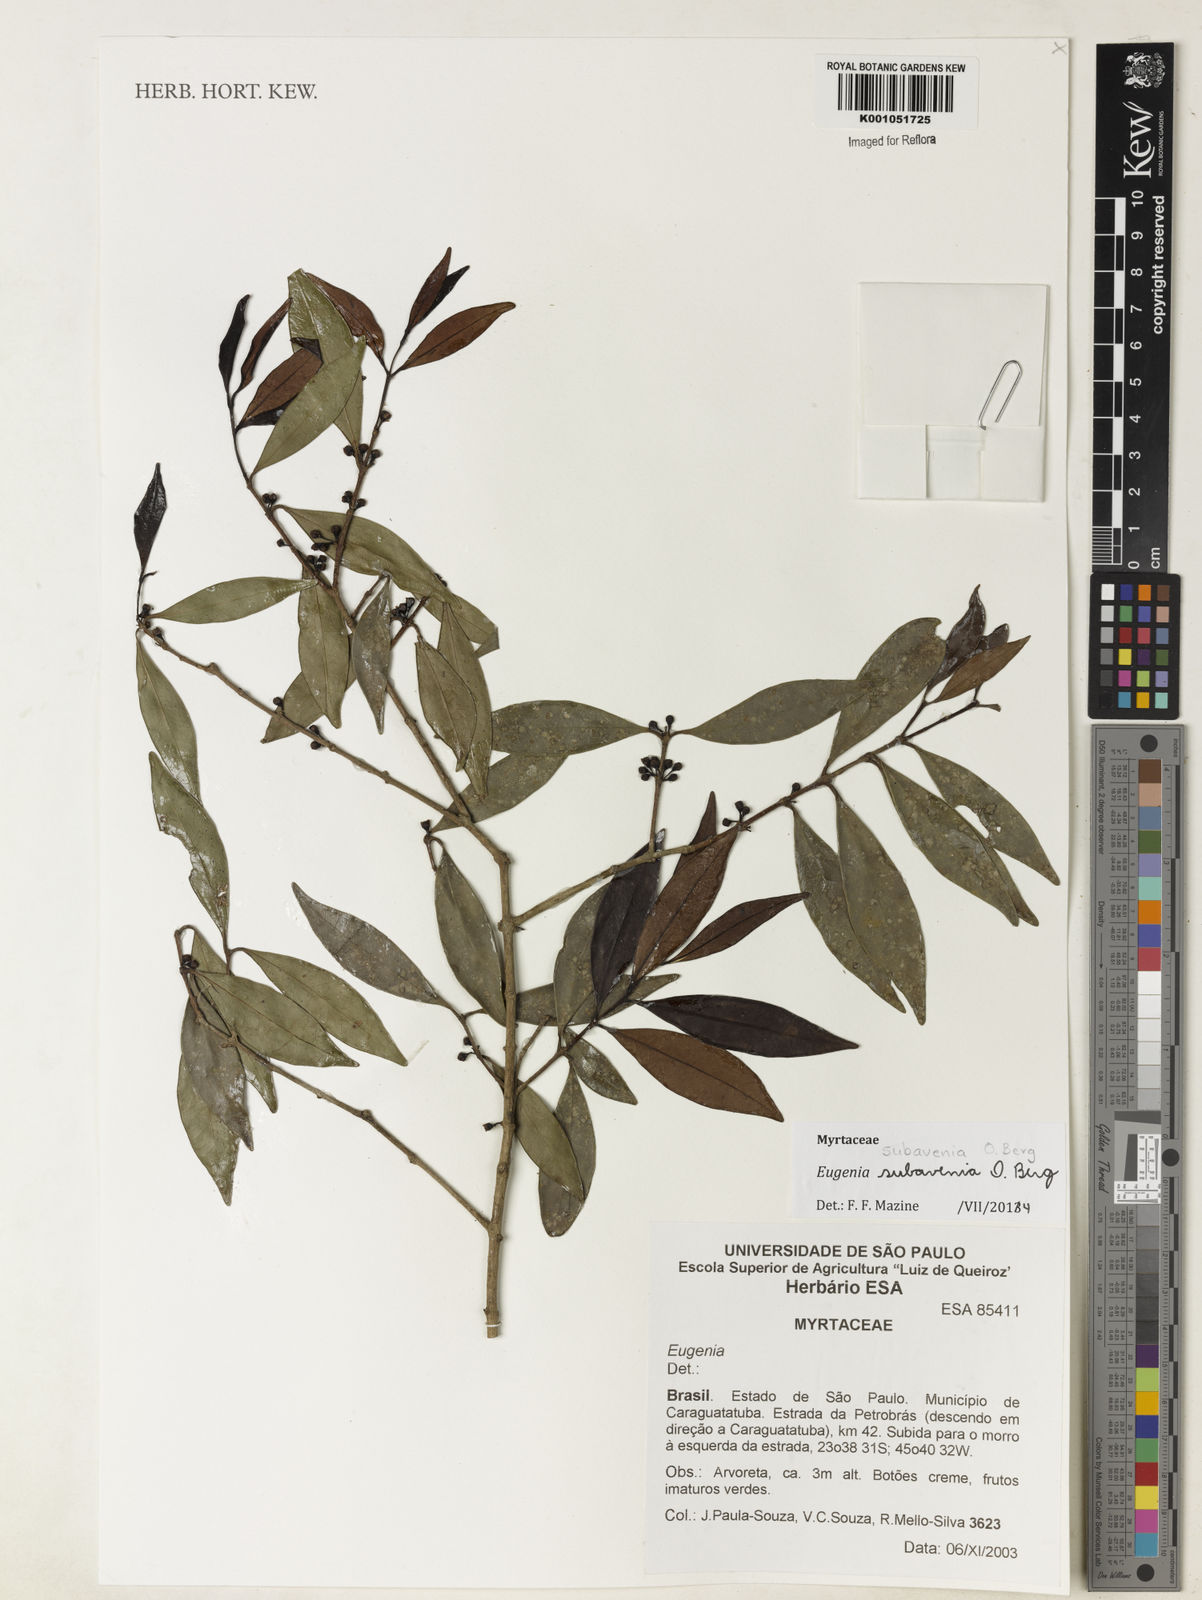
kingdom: Plantae
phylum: Tracheophyta
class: Magnoliopsida
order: Myrtales
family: Myrtaceae
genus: Eugenia
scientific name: Eugenia subavenia
